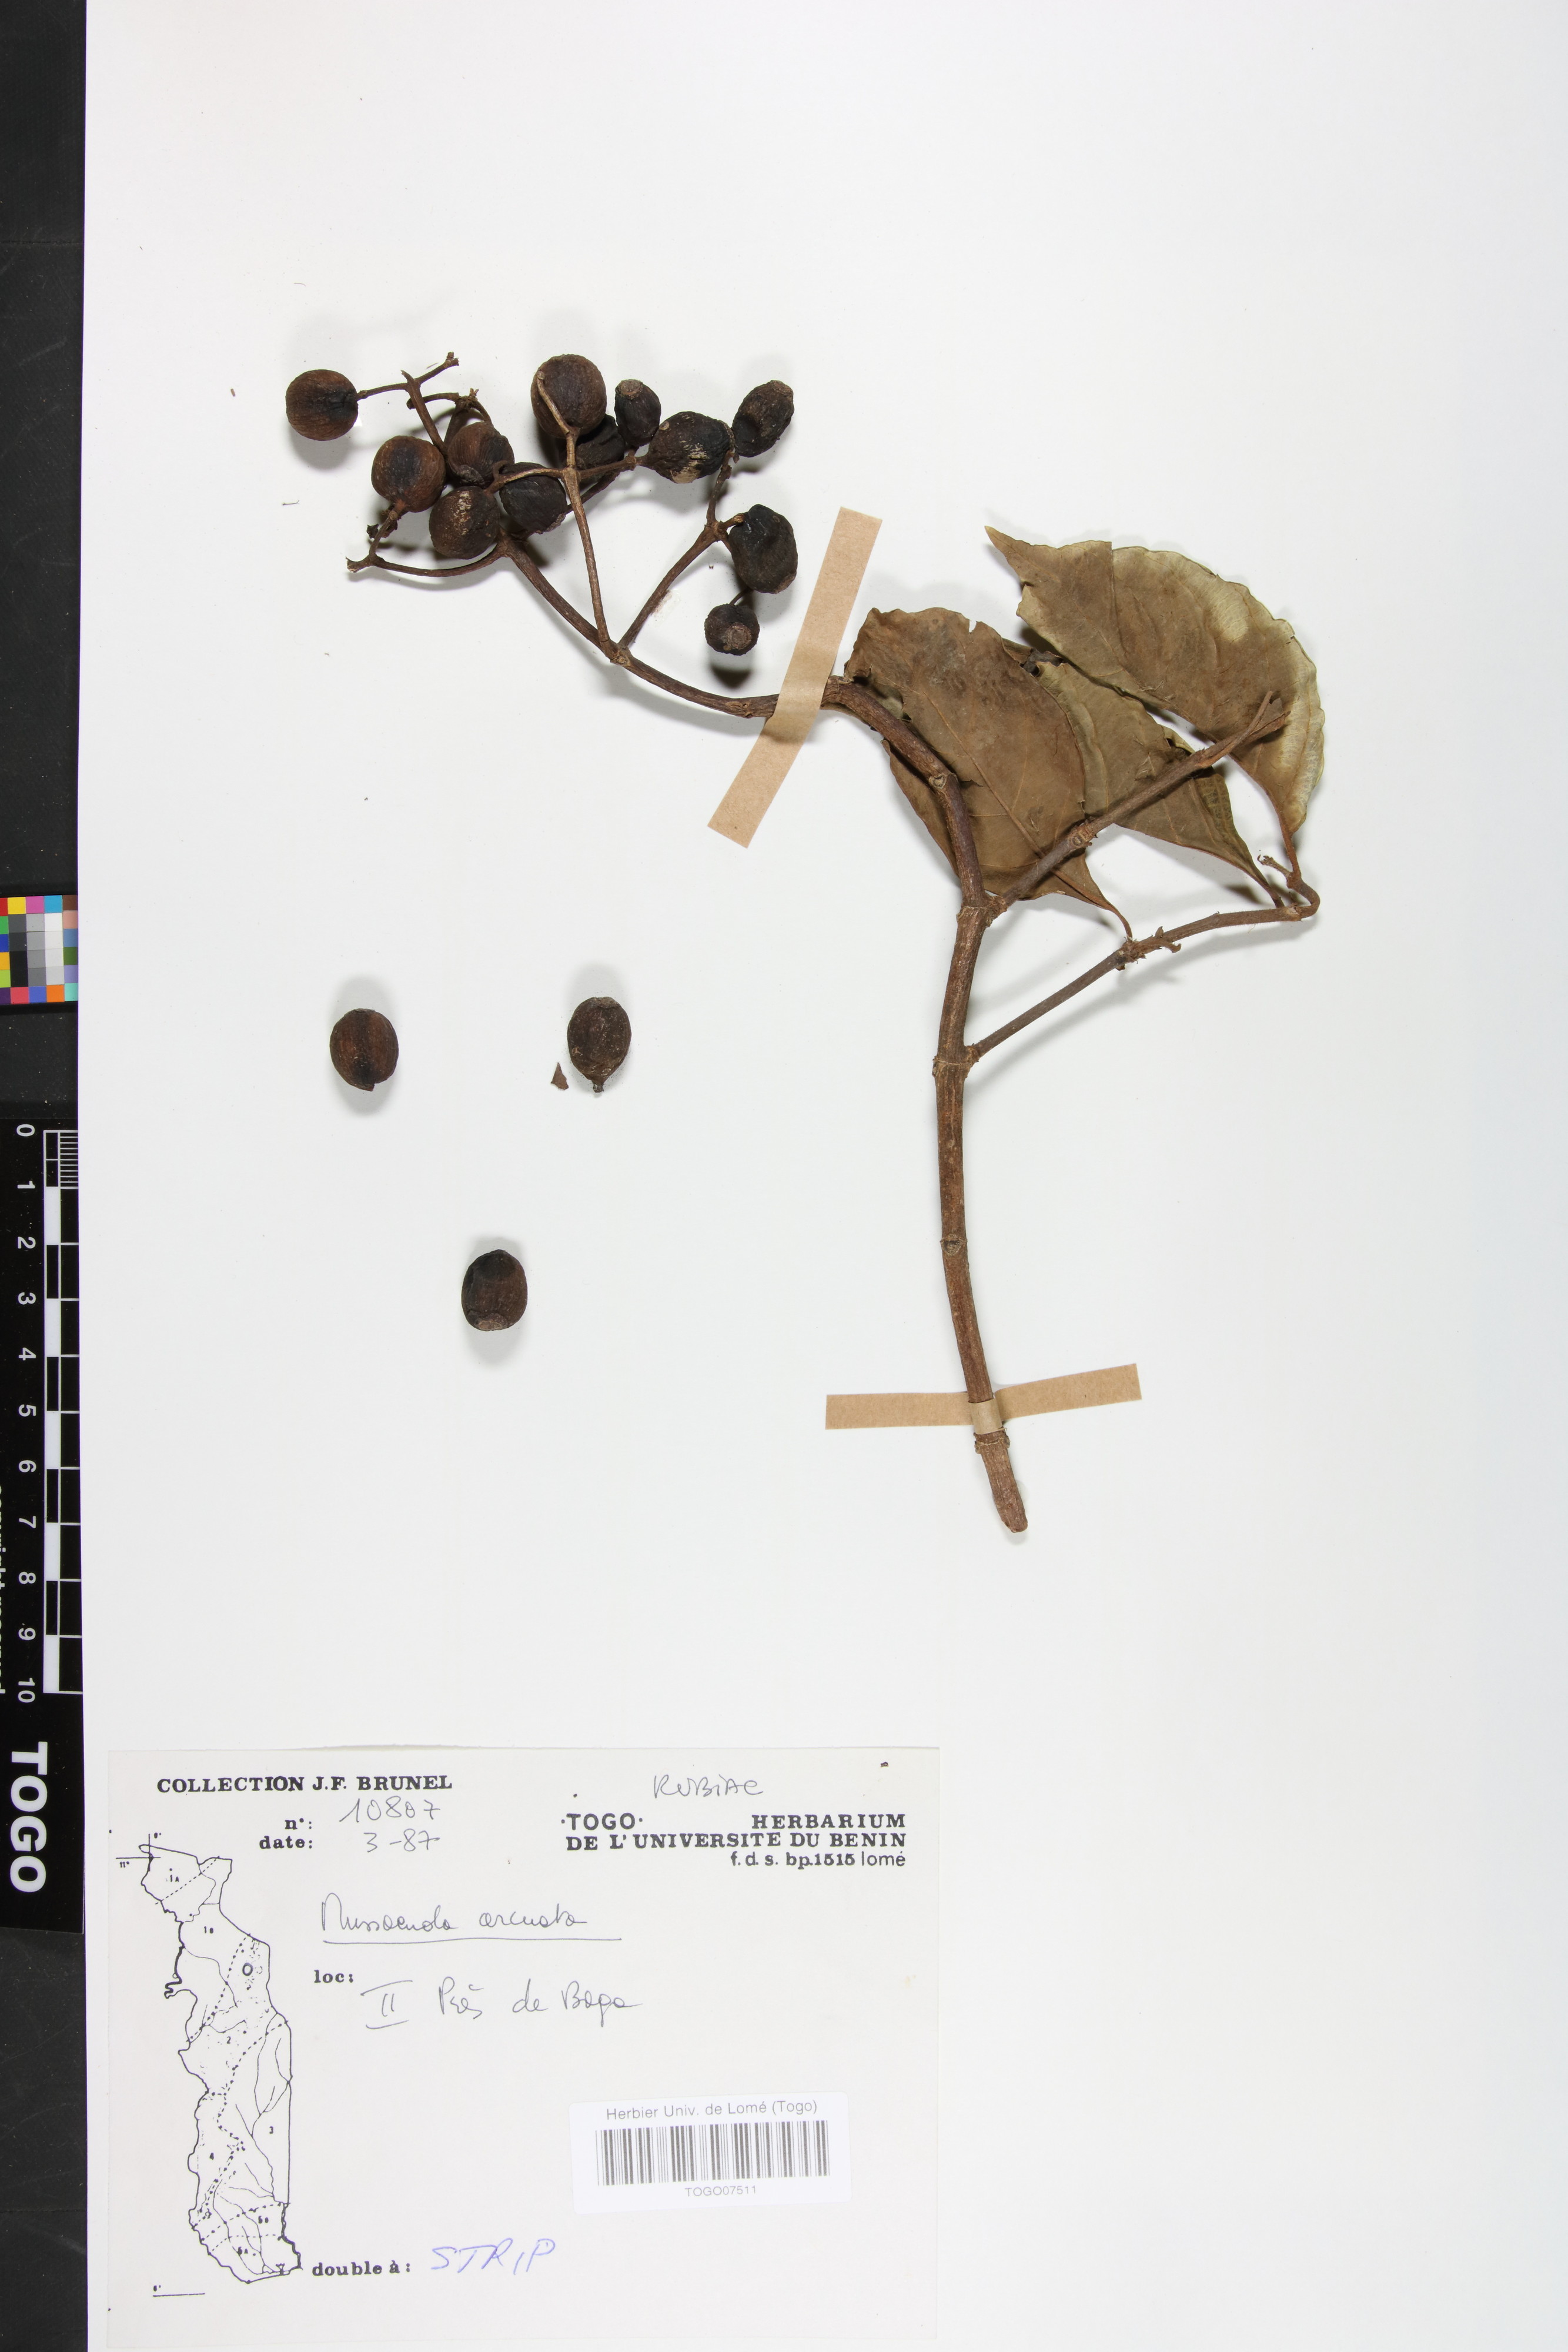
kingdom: Plantae
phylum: Tracheophyta
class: Magnoliopsida
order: Gentianales
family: Rubiaceae
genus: Mussaenda
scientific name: Mussaenda arcuata
